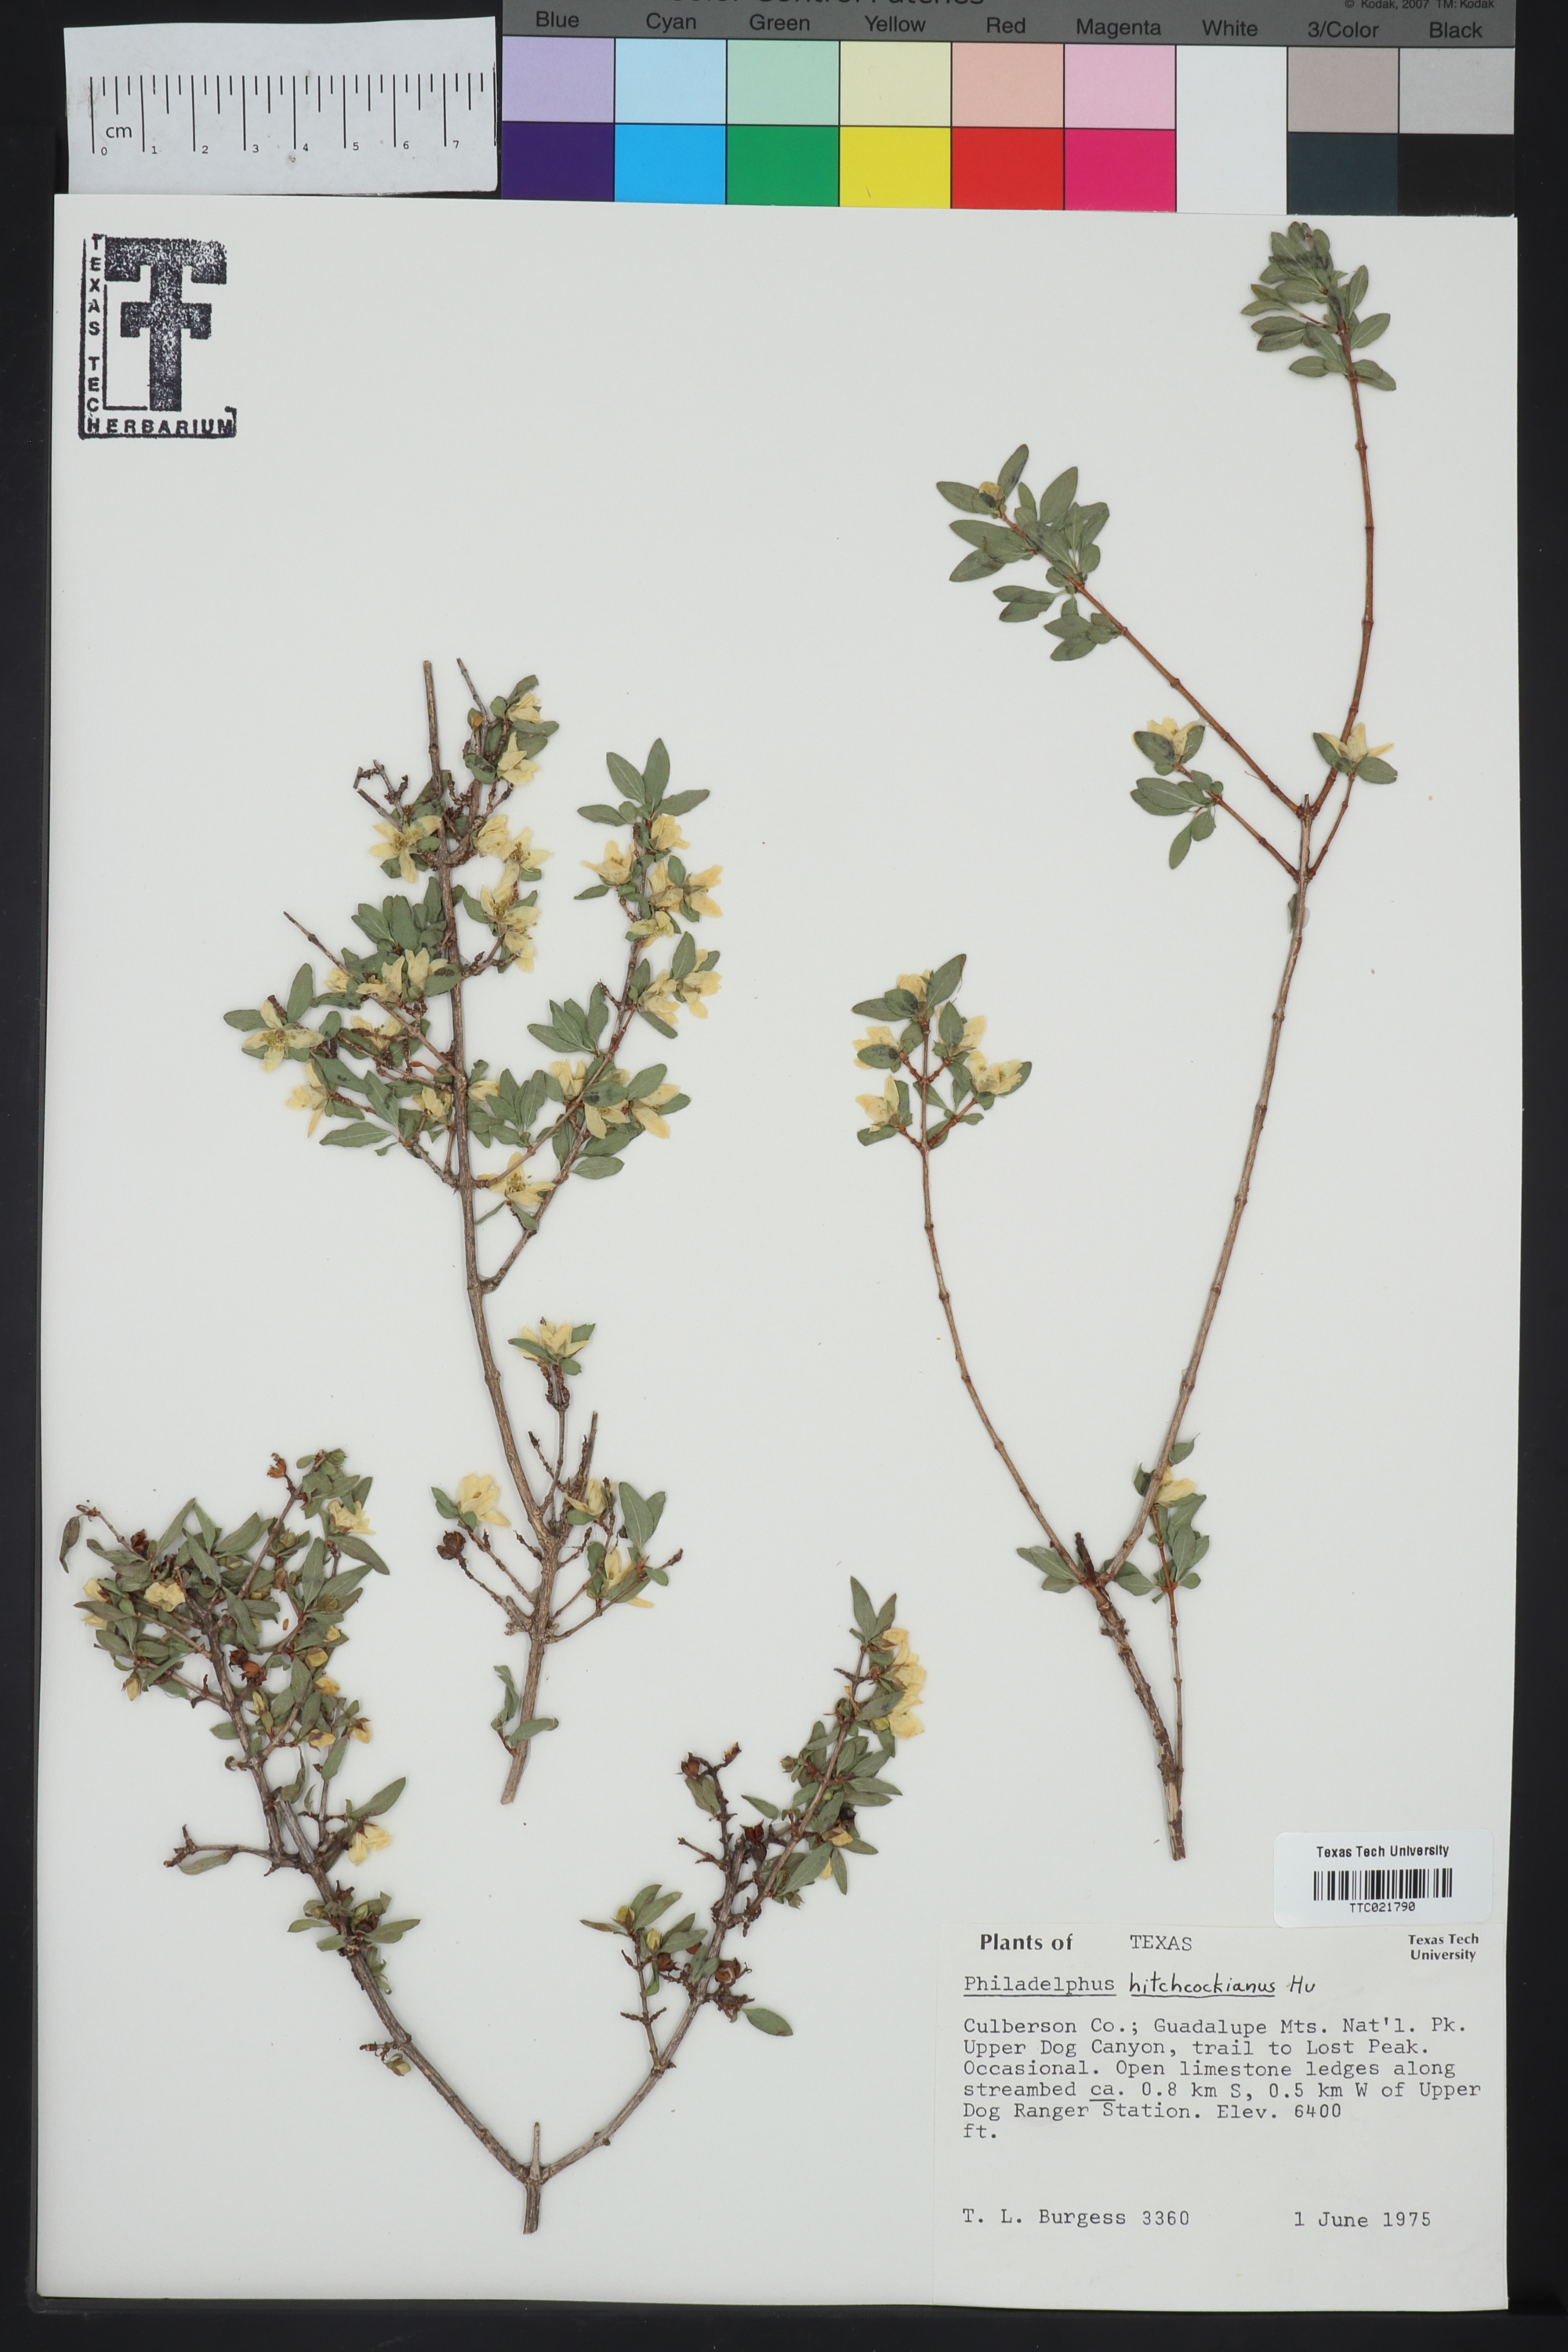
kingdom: Plantae
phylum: Tracheophyta
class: Magnoliopsida
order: Cornales
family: Hydrangeaceae
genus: Philadelphus
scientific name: Philadelphus mearnsii
